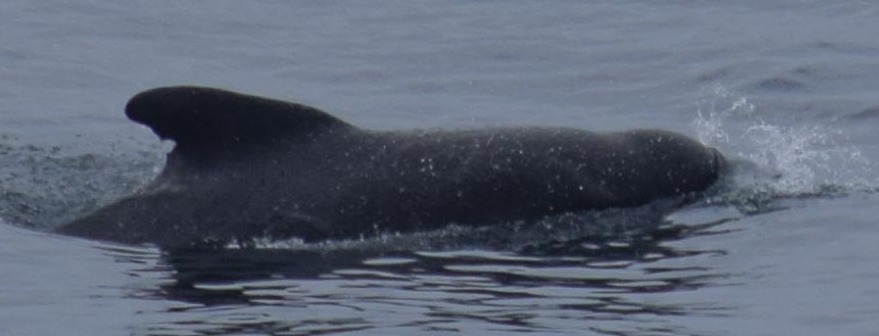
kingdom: Animalia
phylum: Chordata
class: Mammalia
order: Cetacea
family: Delphinidae
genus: Globicephala
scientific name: Globicephala melas
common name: Long-finned pilot whale
